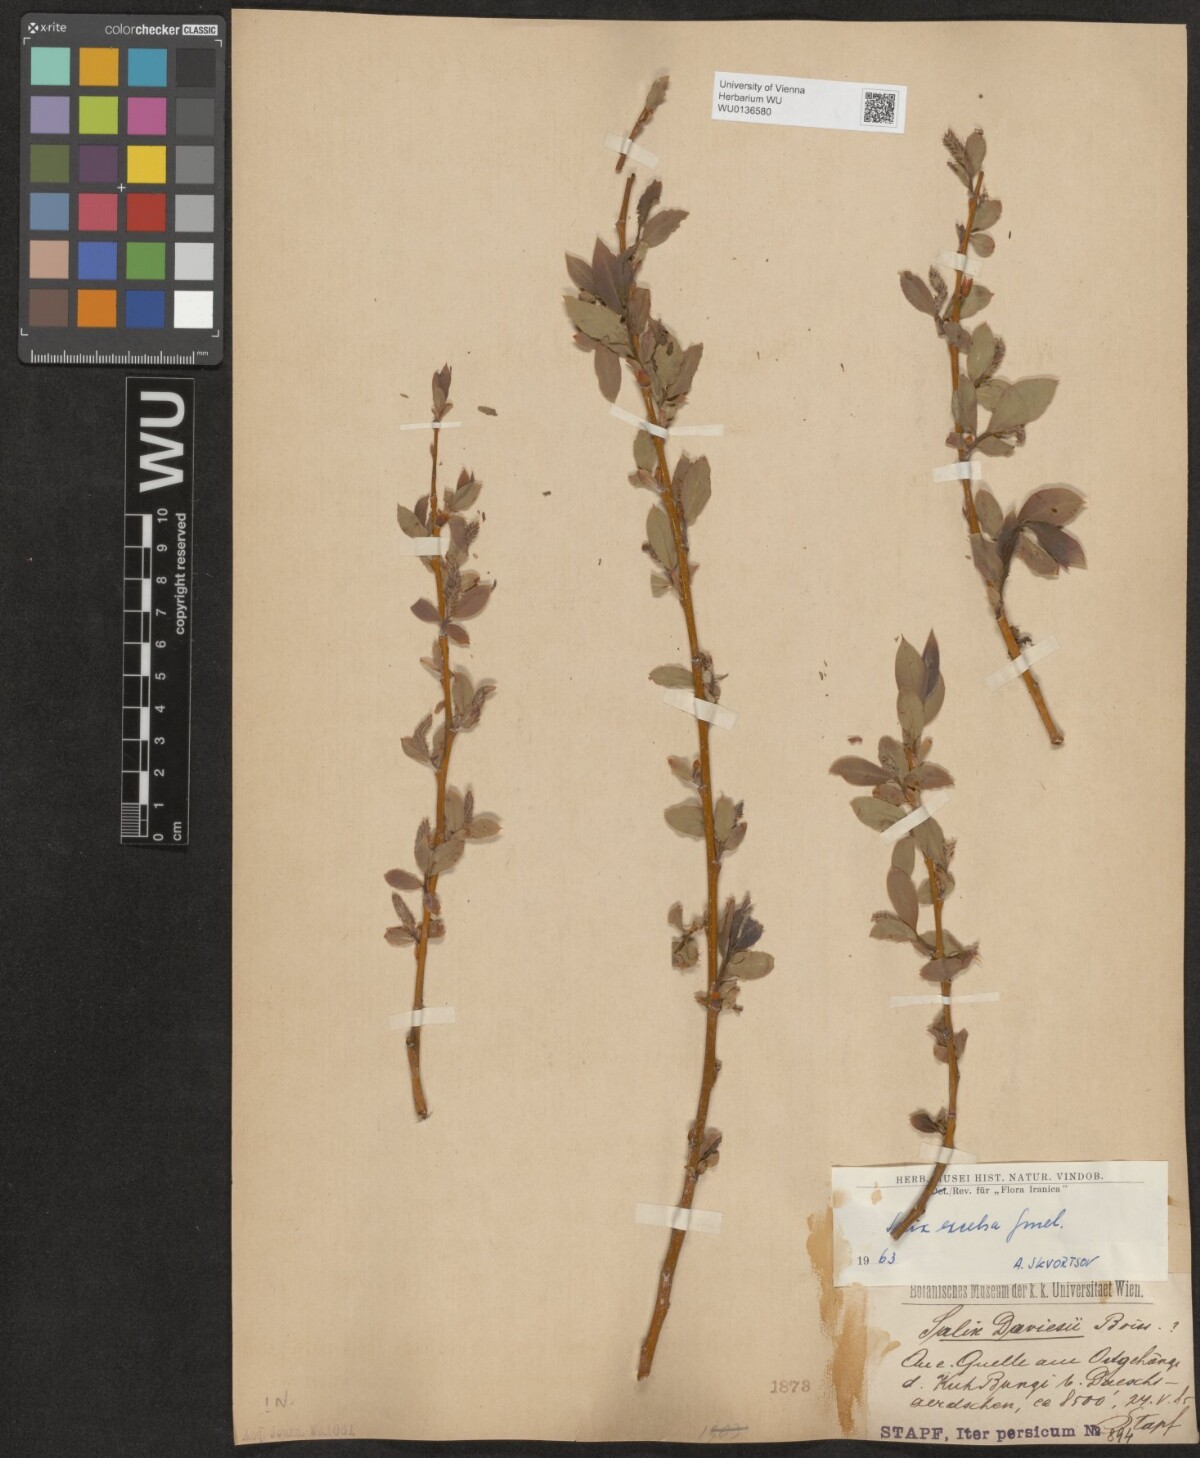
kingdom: Plantae
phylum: Tracheophyta
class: Magnoliopsida
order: Malpighiales
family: Salicaceae
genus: Salix
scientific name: Salix excelsa
